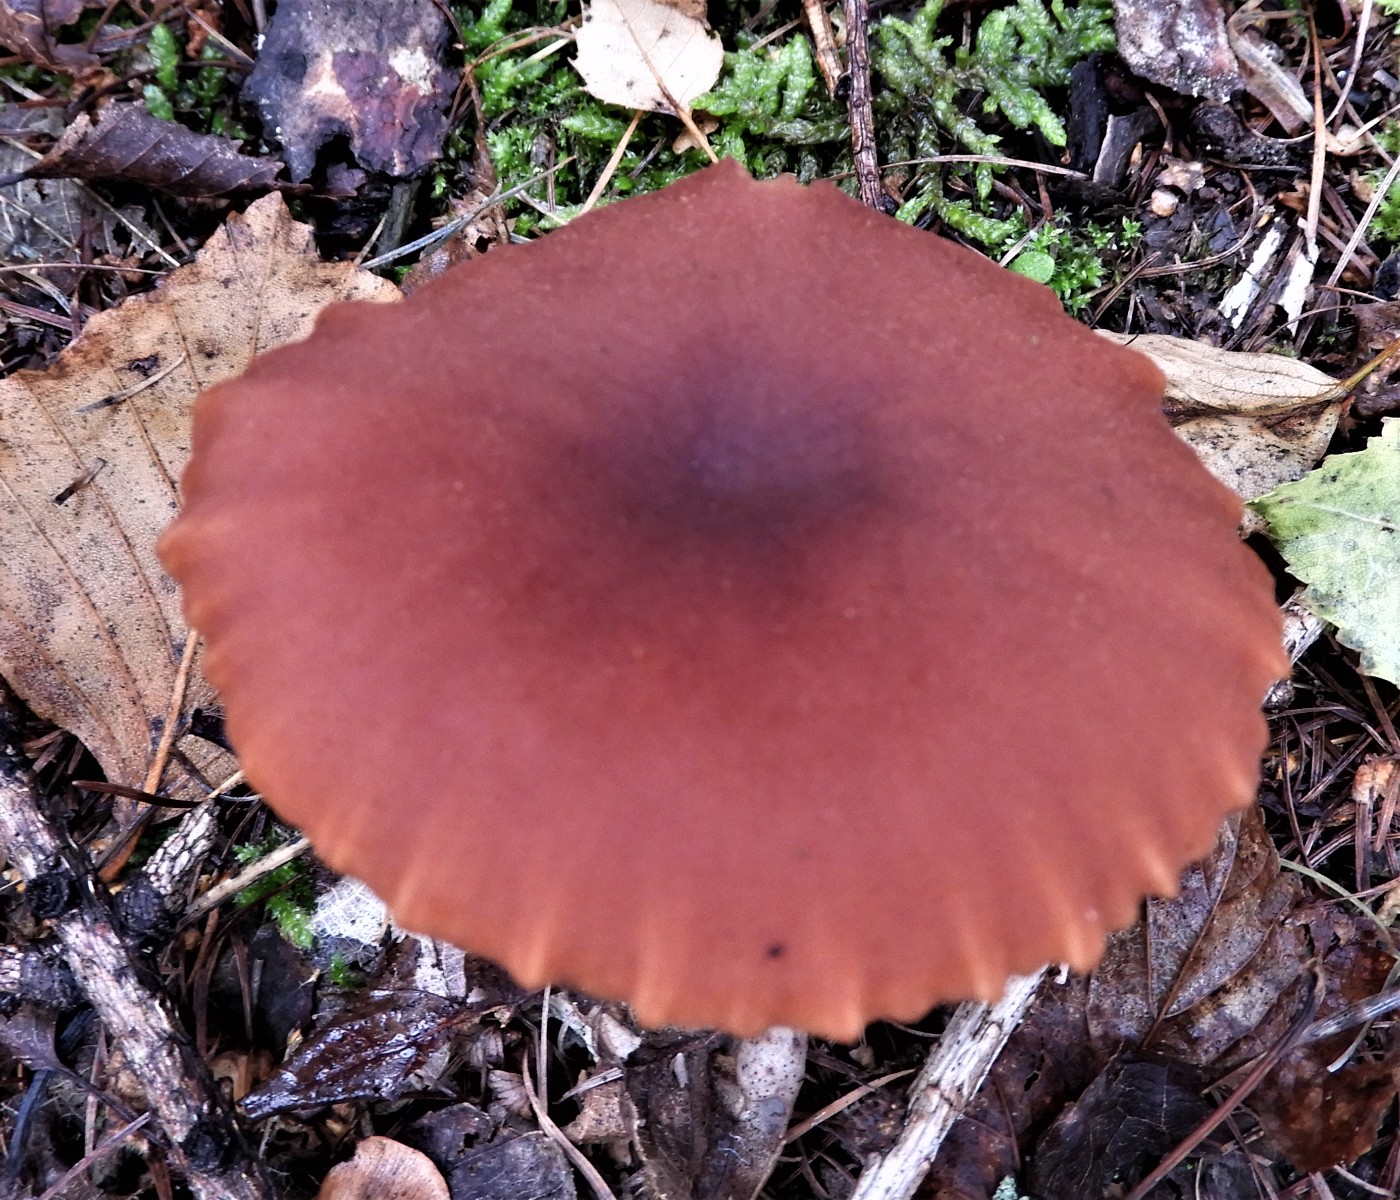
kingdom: Fungi
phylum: Basidiomycota
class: Agaricomycetes
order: Agaricales
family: Hydnangiaceae
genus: Laccaria
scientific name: Laccaria proxima
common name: stor ametysthat
